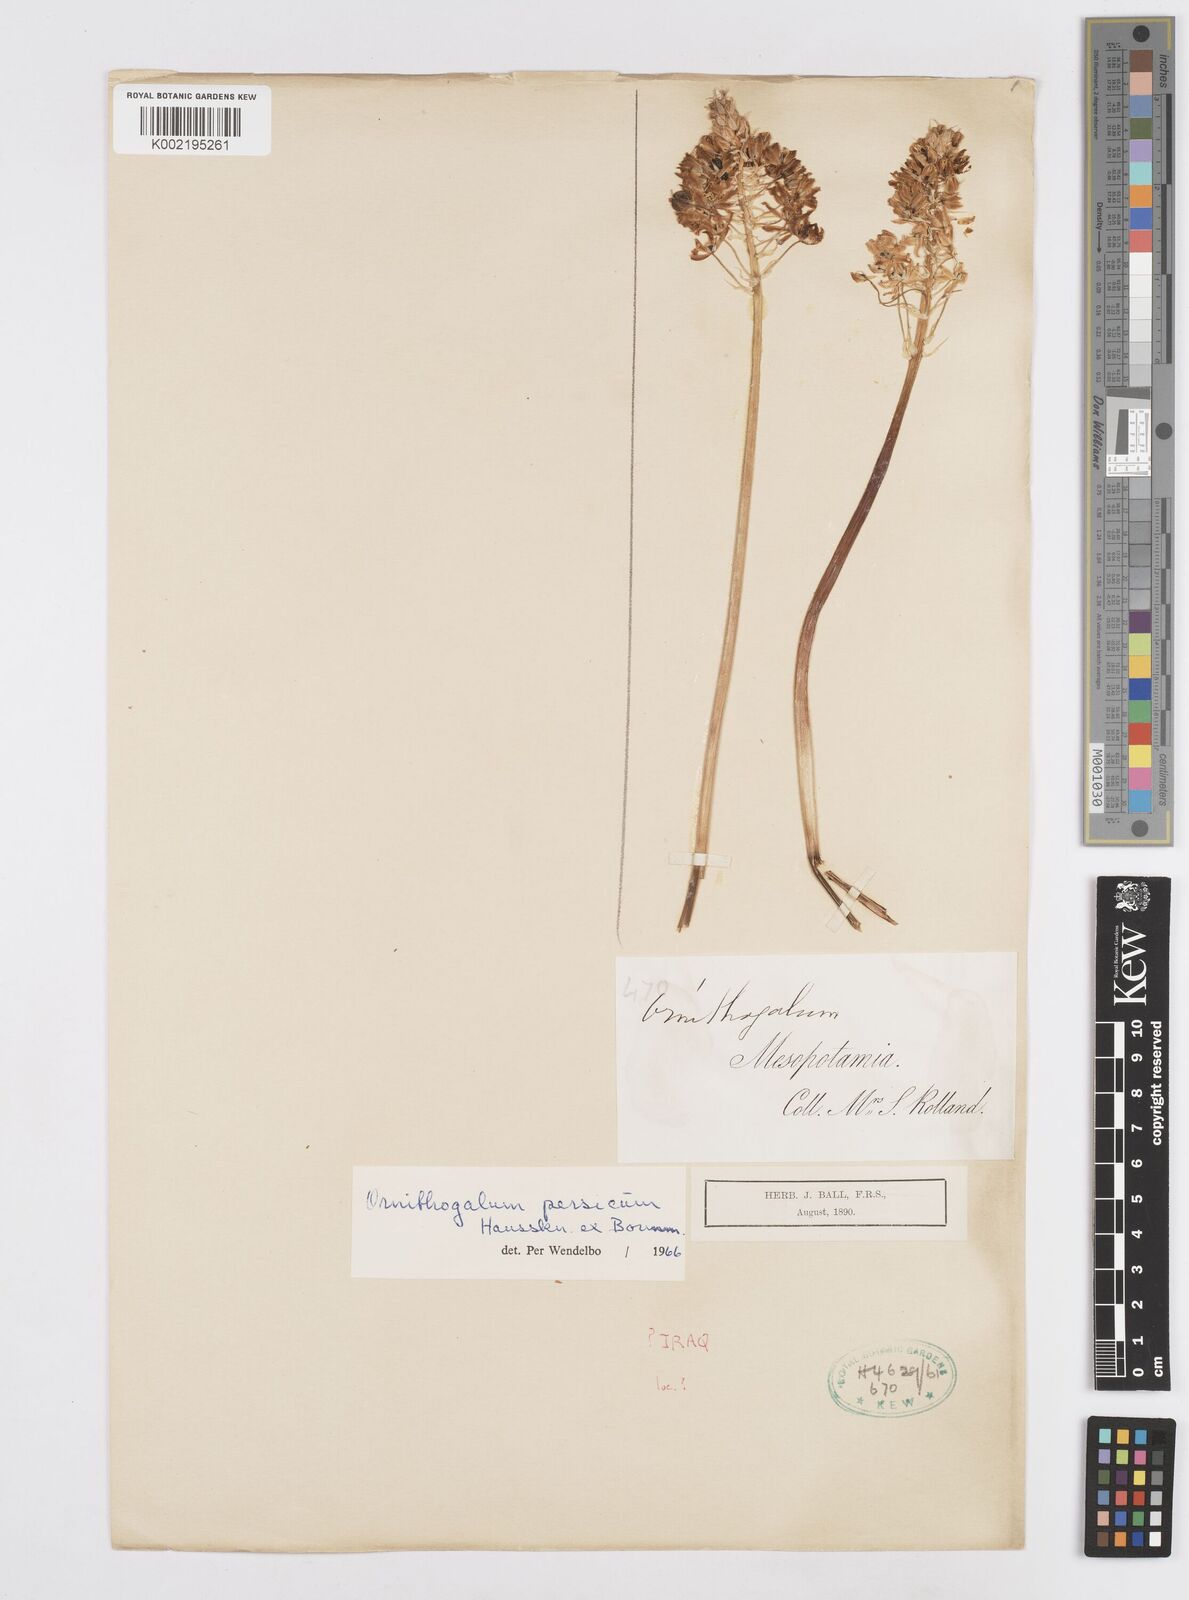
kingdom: Plantae
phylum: Tracheophyta
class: Liliopsida
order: Asparagales
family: Asparagaceae
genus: Ornithogalum
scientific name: Ornithogalum persicum
